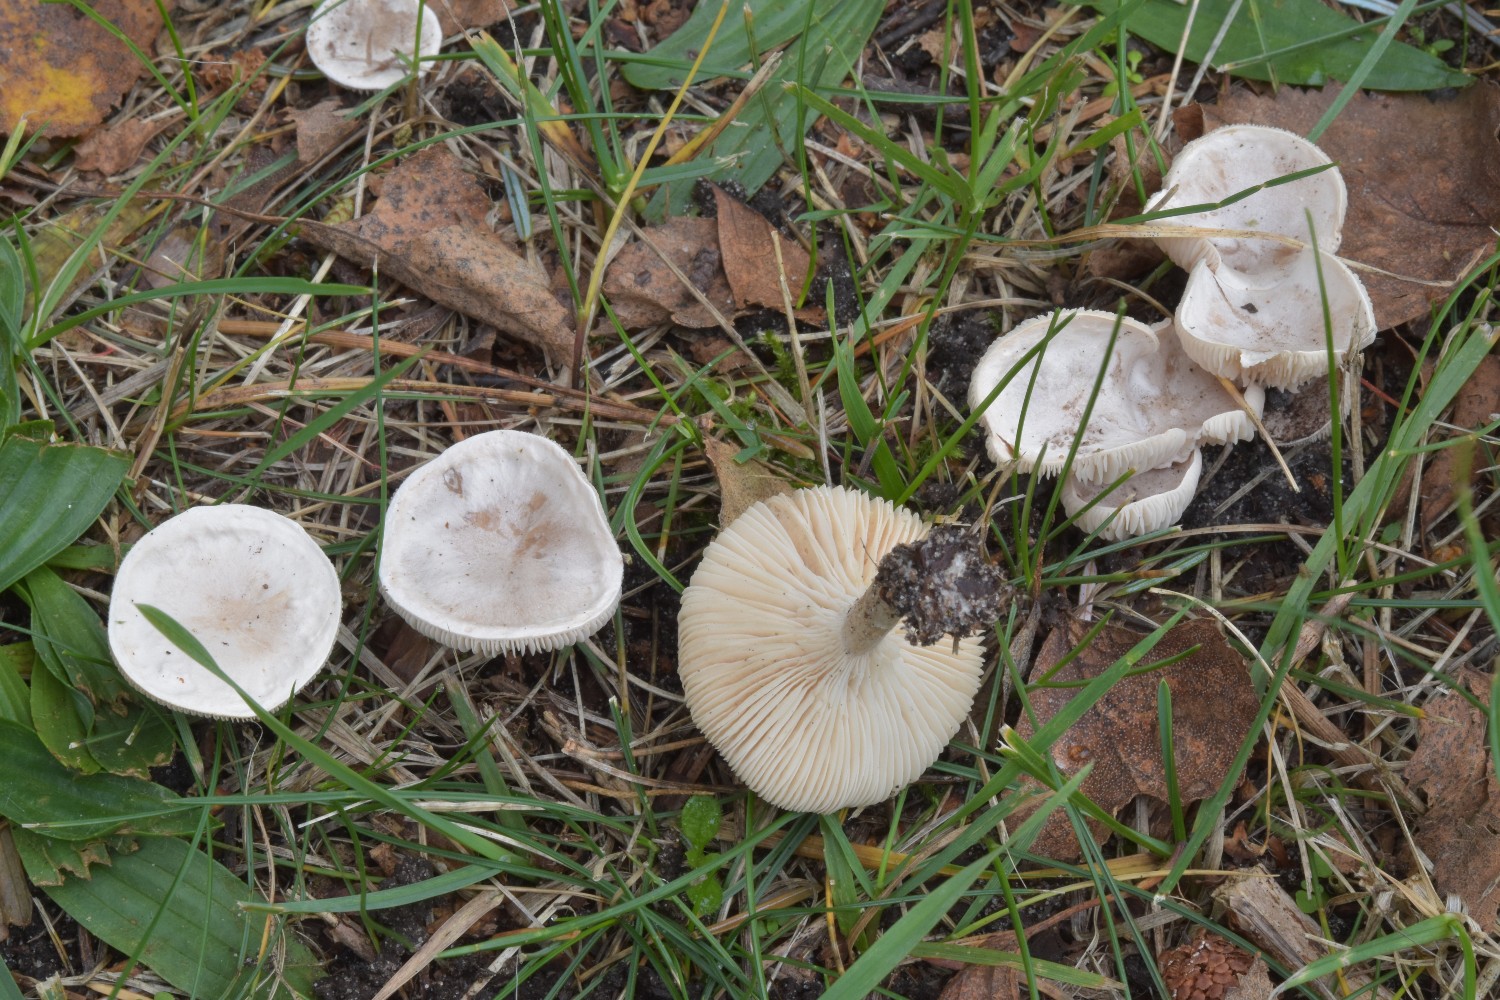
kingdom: Fungi
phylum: Basidiomycota
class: Agaricomycetes
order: Agaricales
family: Tricholomataceae
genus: Clitocybe
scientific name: Clitocybe rivulosa
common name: eng-tragthat
